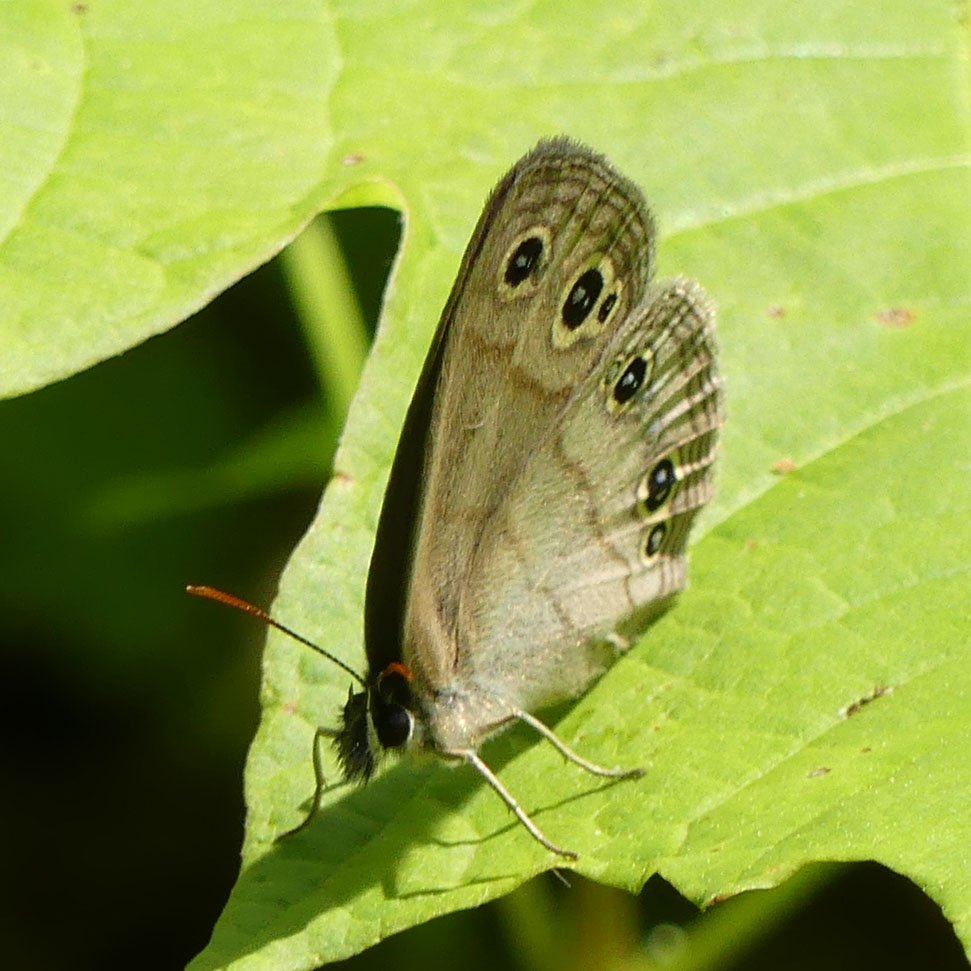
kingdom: Animalia
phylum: Arthropoda
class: Insecta
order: Lepidoptera
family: Nymphalidae
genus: Euptychia
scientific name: Euptychia cymela
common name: Little Wood Satyr
